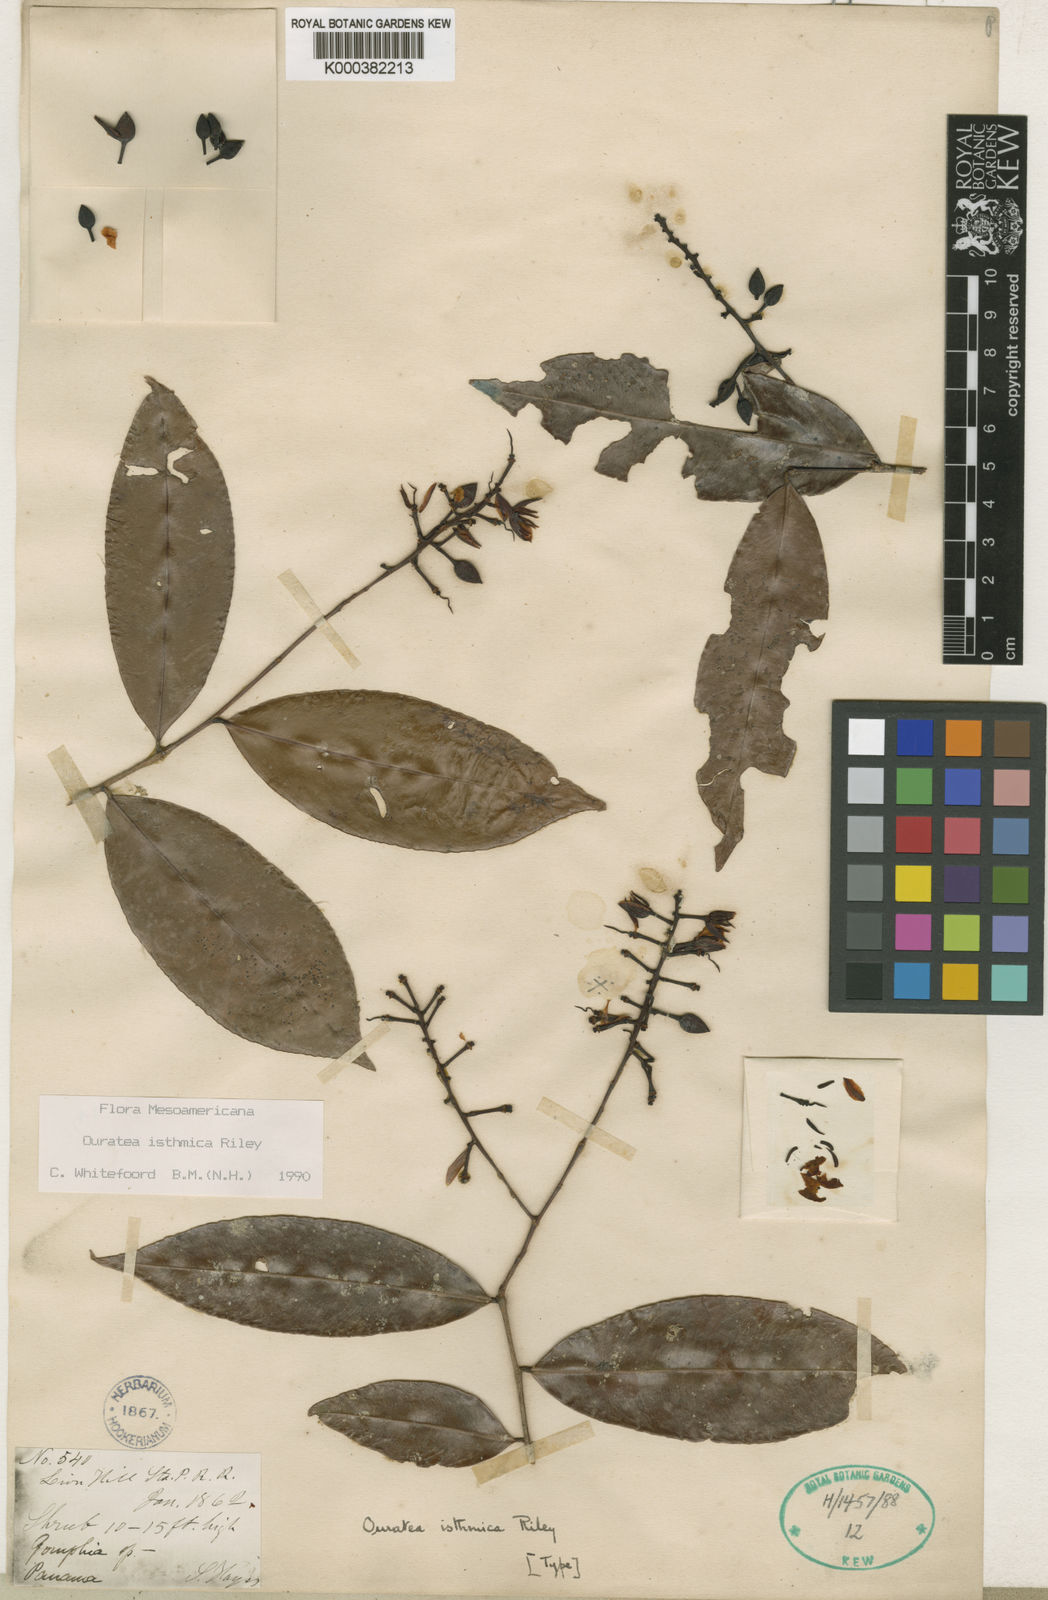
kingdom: Plantae
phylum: Tracheophyta
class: Magnoliopsida
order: Malpighiales
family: Ochnaceae
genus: Ouratea
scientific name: Ouratea lucens
